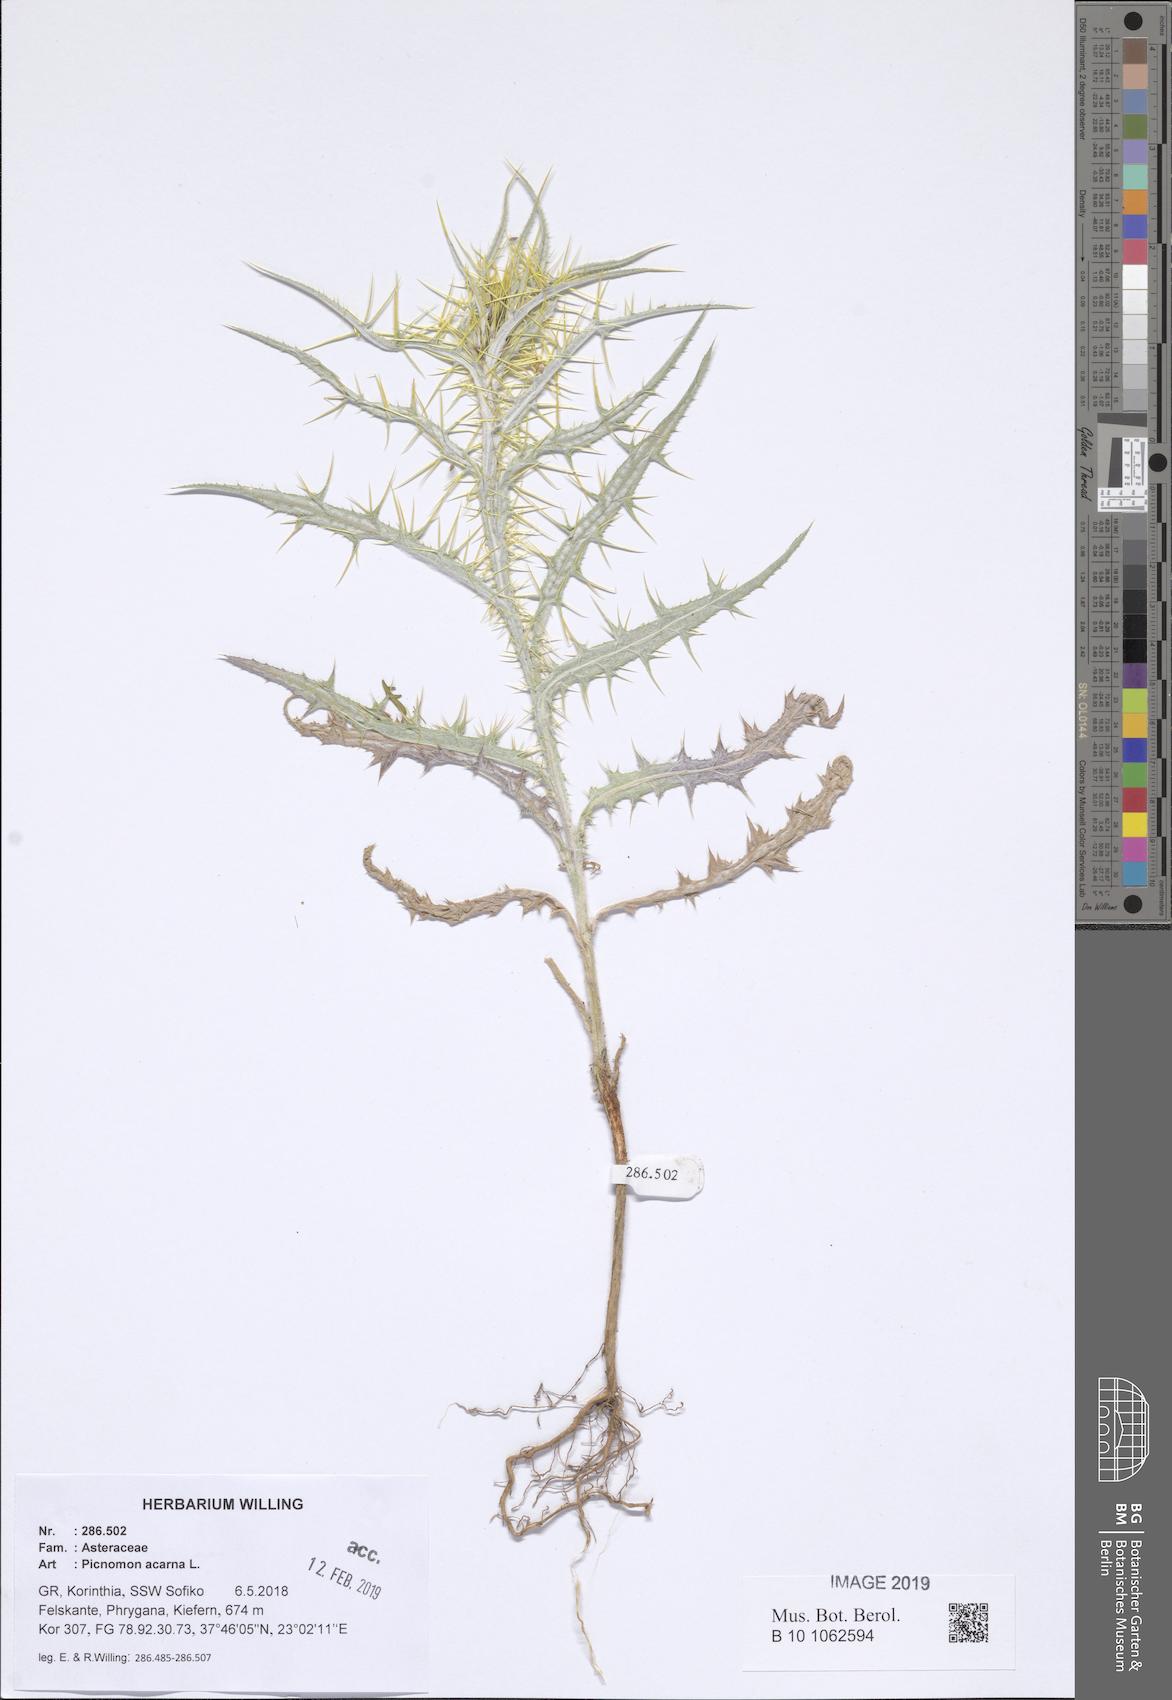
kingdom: Plantae
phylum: Tracheophyta
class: Magnoliopsida
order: Asterales
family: Asteraceae
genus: Picnomon
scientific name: Picnomon acarna
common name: Soldier thistle
